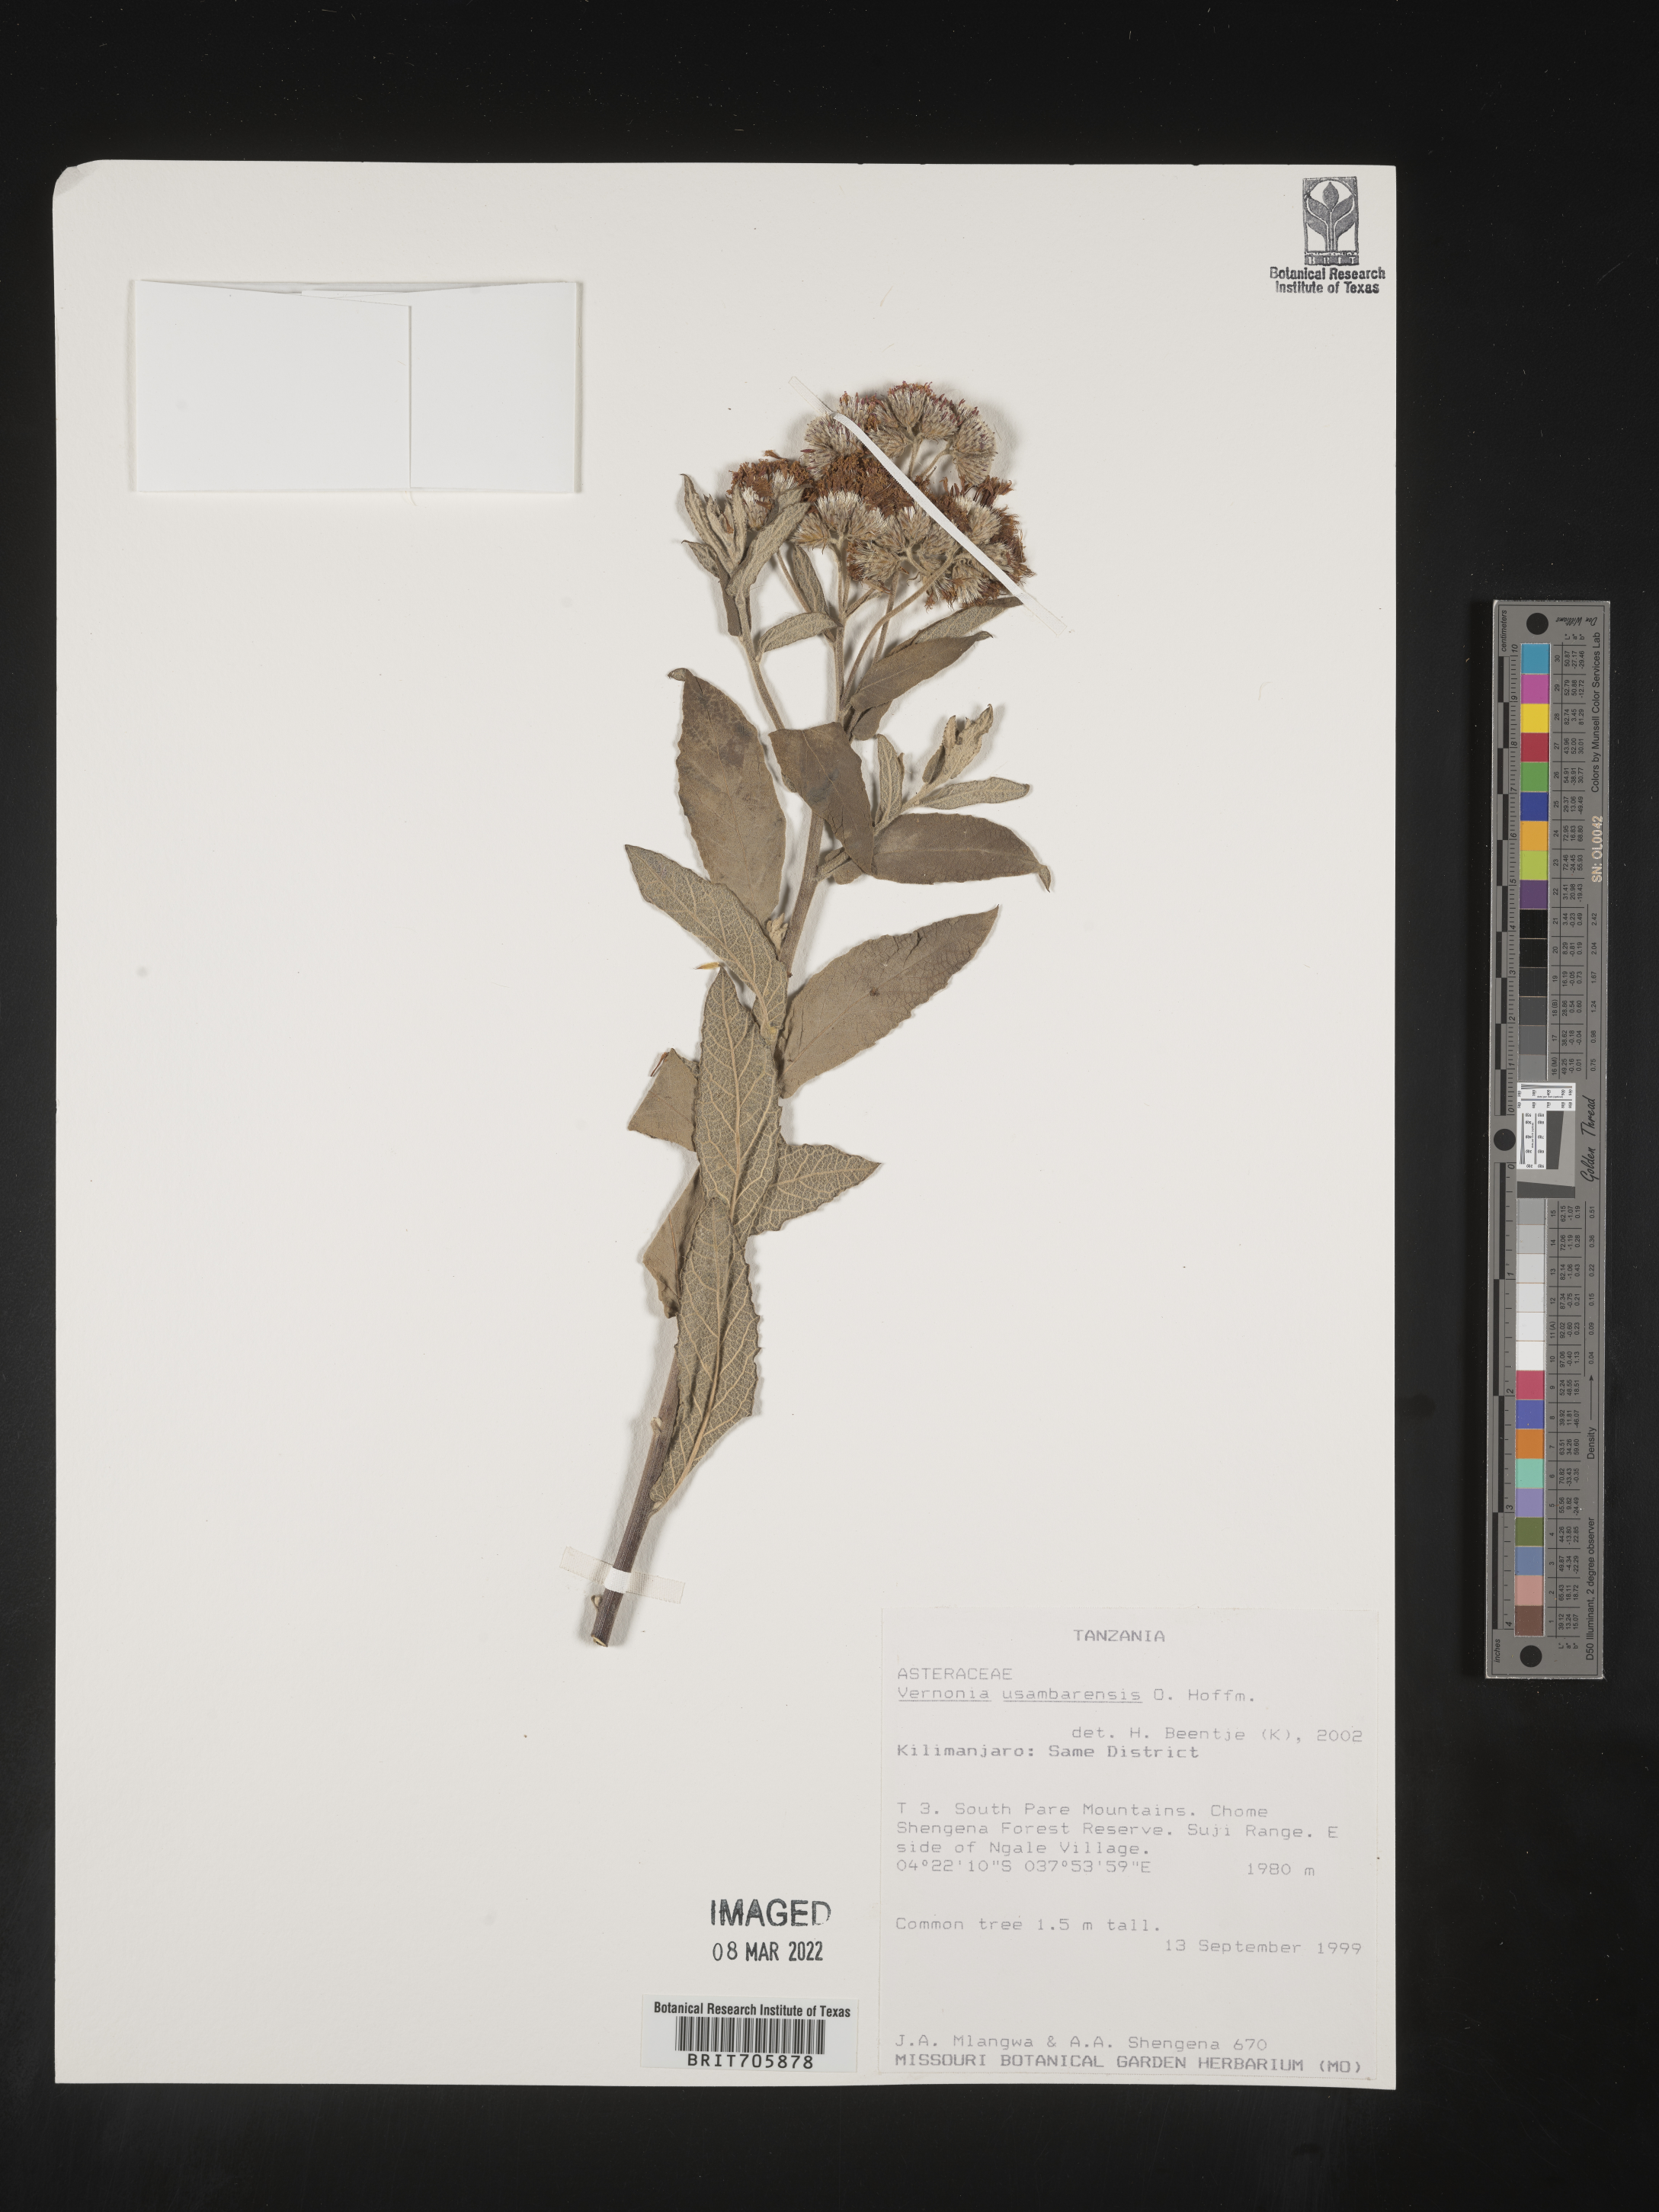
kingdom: Plantae
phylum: Tracheophyta
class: Magnoliopsida
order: Asterales
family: Asteraceae
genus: Vernonia
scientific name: Vernonia
